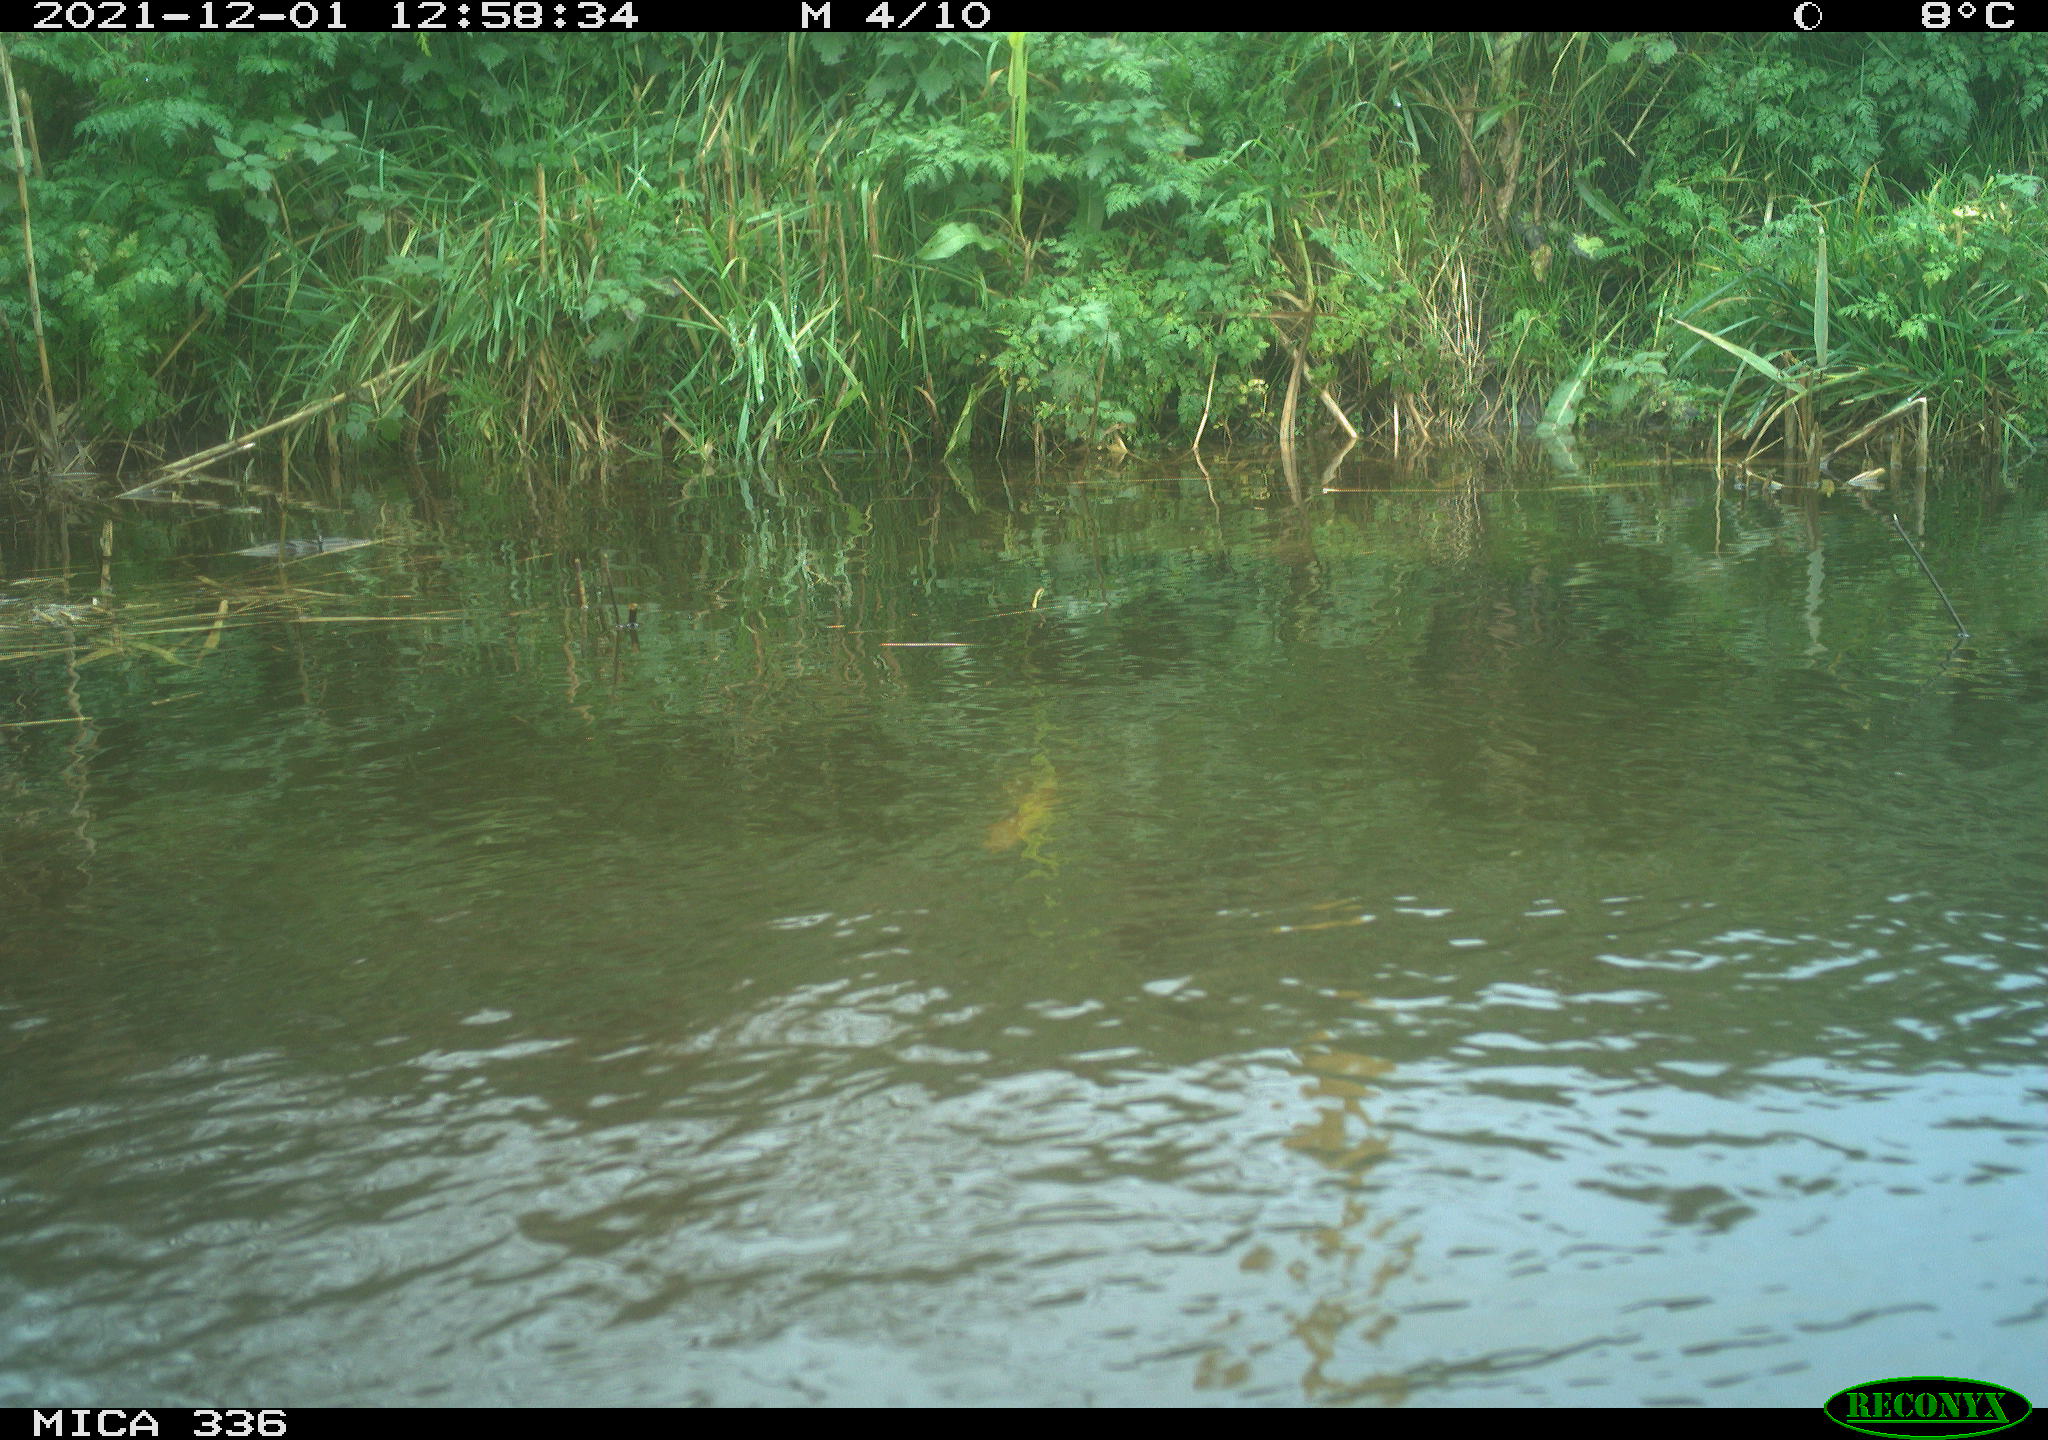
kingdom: Animalia
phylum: Chordata
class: Aves
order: Gruiformes
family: Rallidae
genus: Gallinula
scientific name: Gallinula chloropus
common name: Common moorhen
